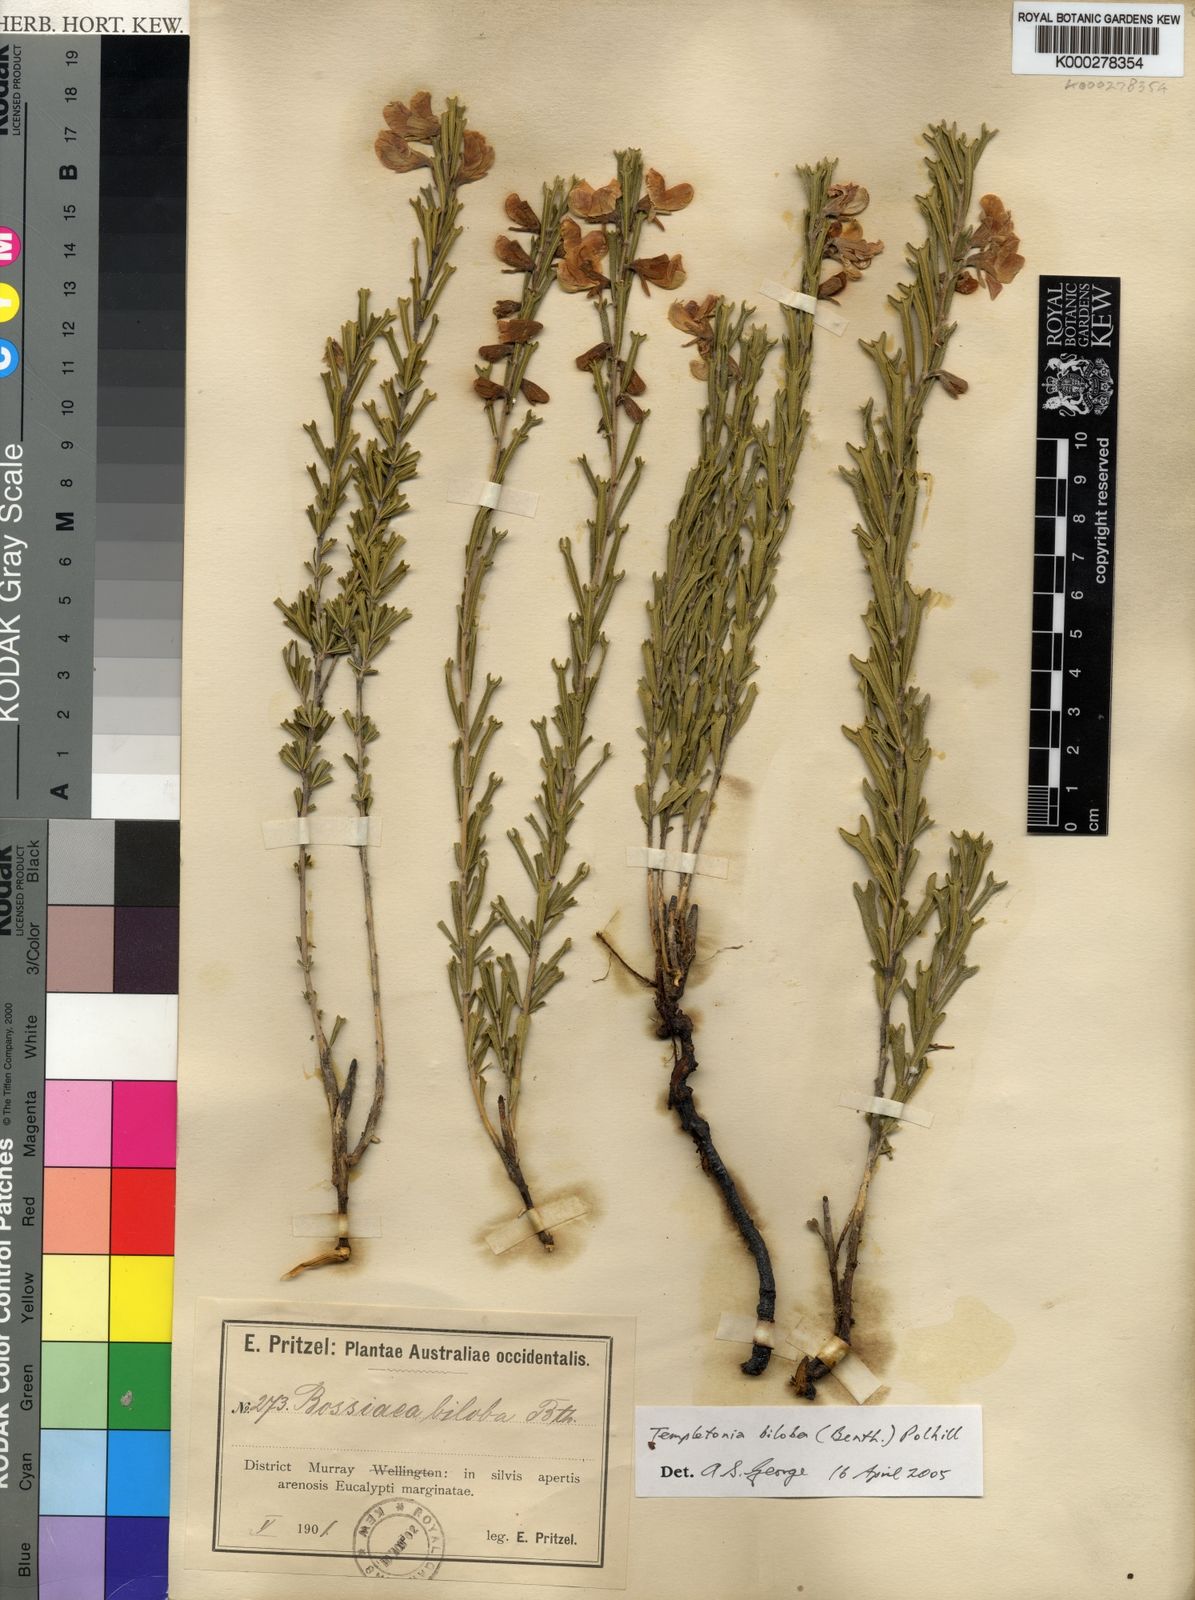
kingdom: Plantae
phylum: Tracheophyta
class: Magnoliopsida
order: Fabales
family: Fabaceae
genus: Cristonia
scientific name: Cristonia biloba
